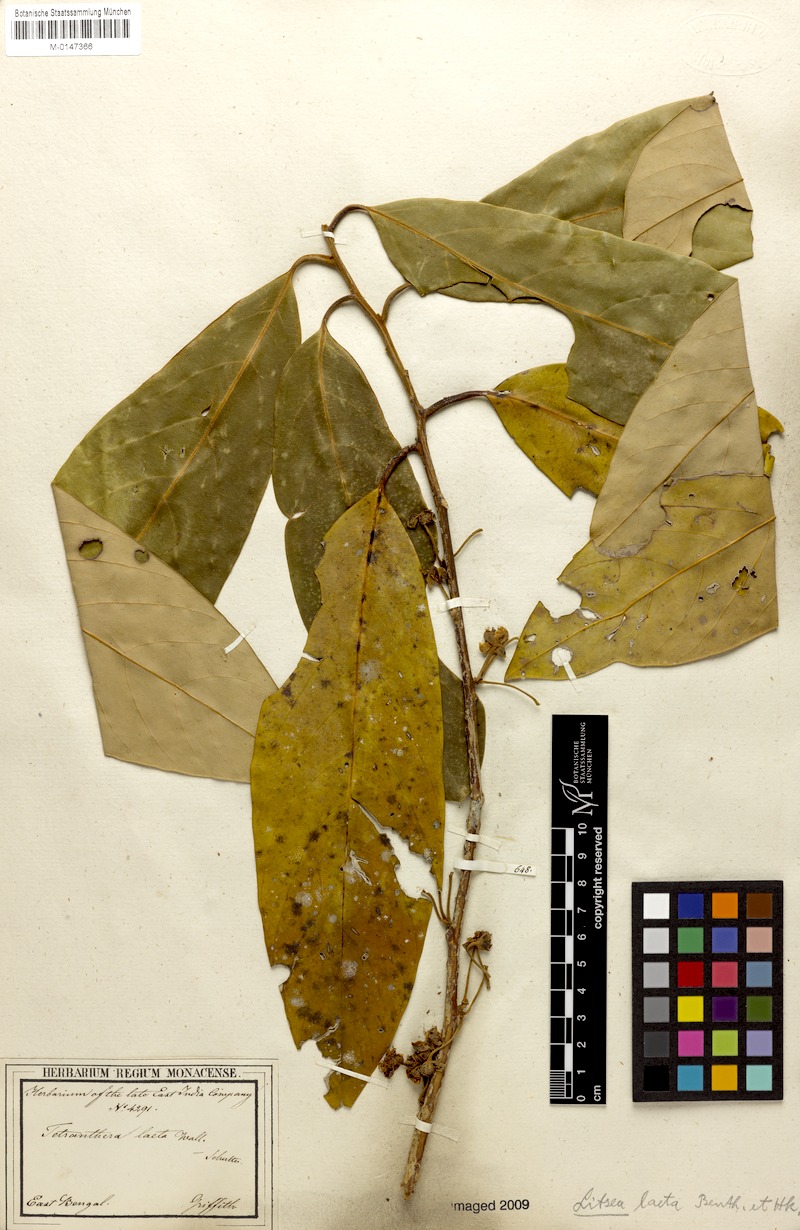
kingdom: Plantae
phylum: Tracheophyta
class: Magnoliopsida
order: Laurales
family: Lauraceae
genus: Litsea
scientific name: Litsea laeta
